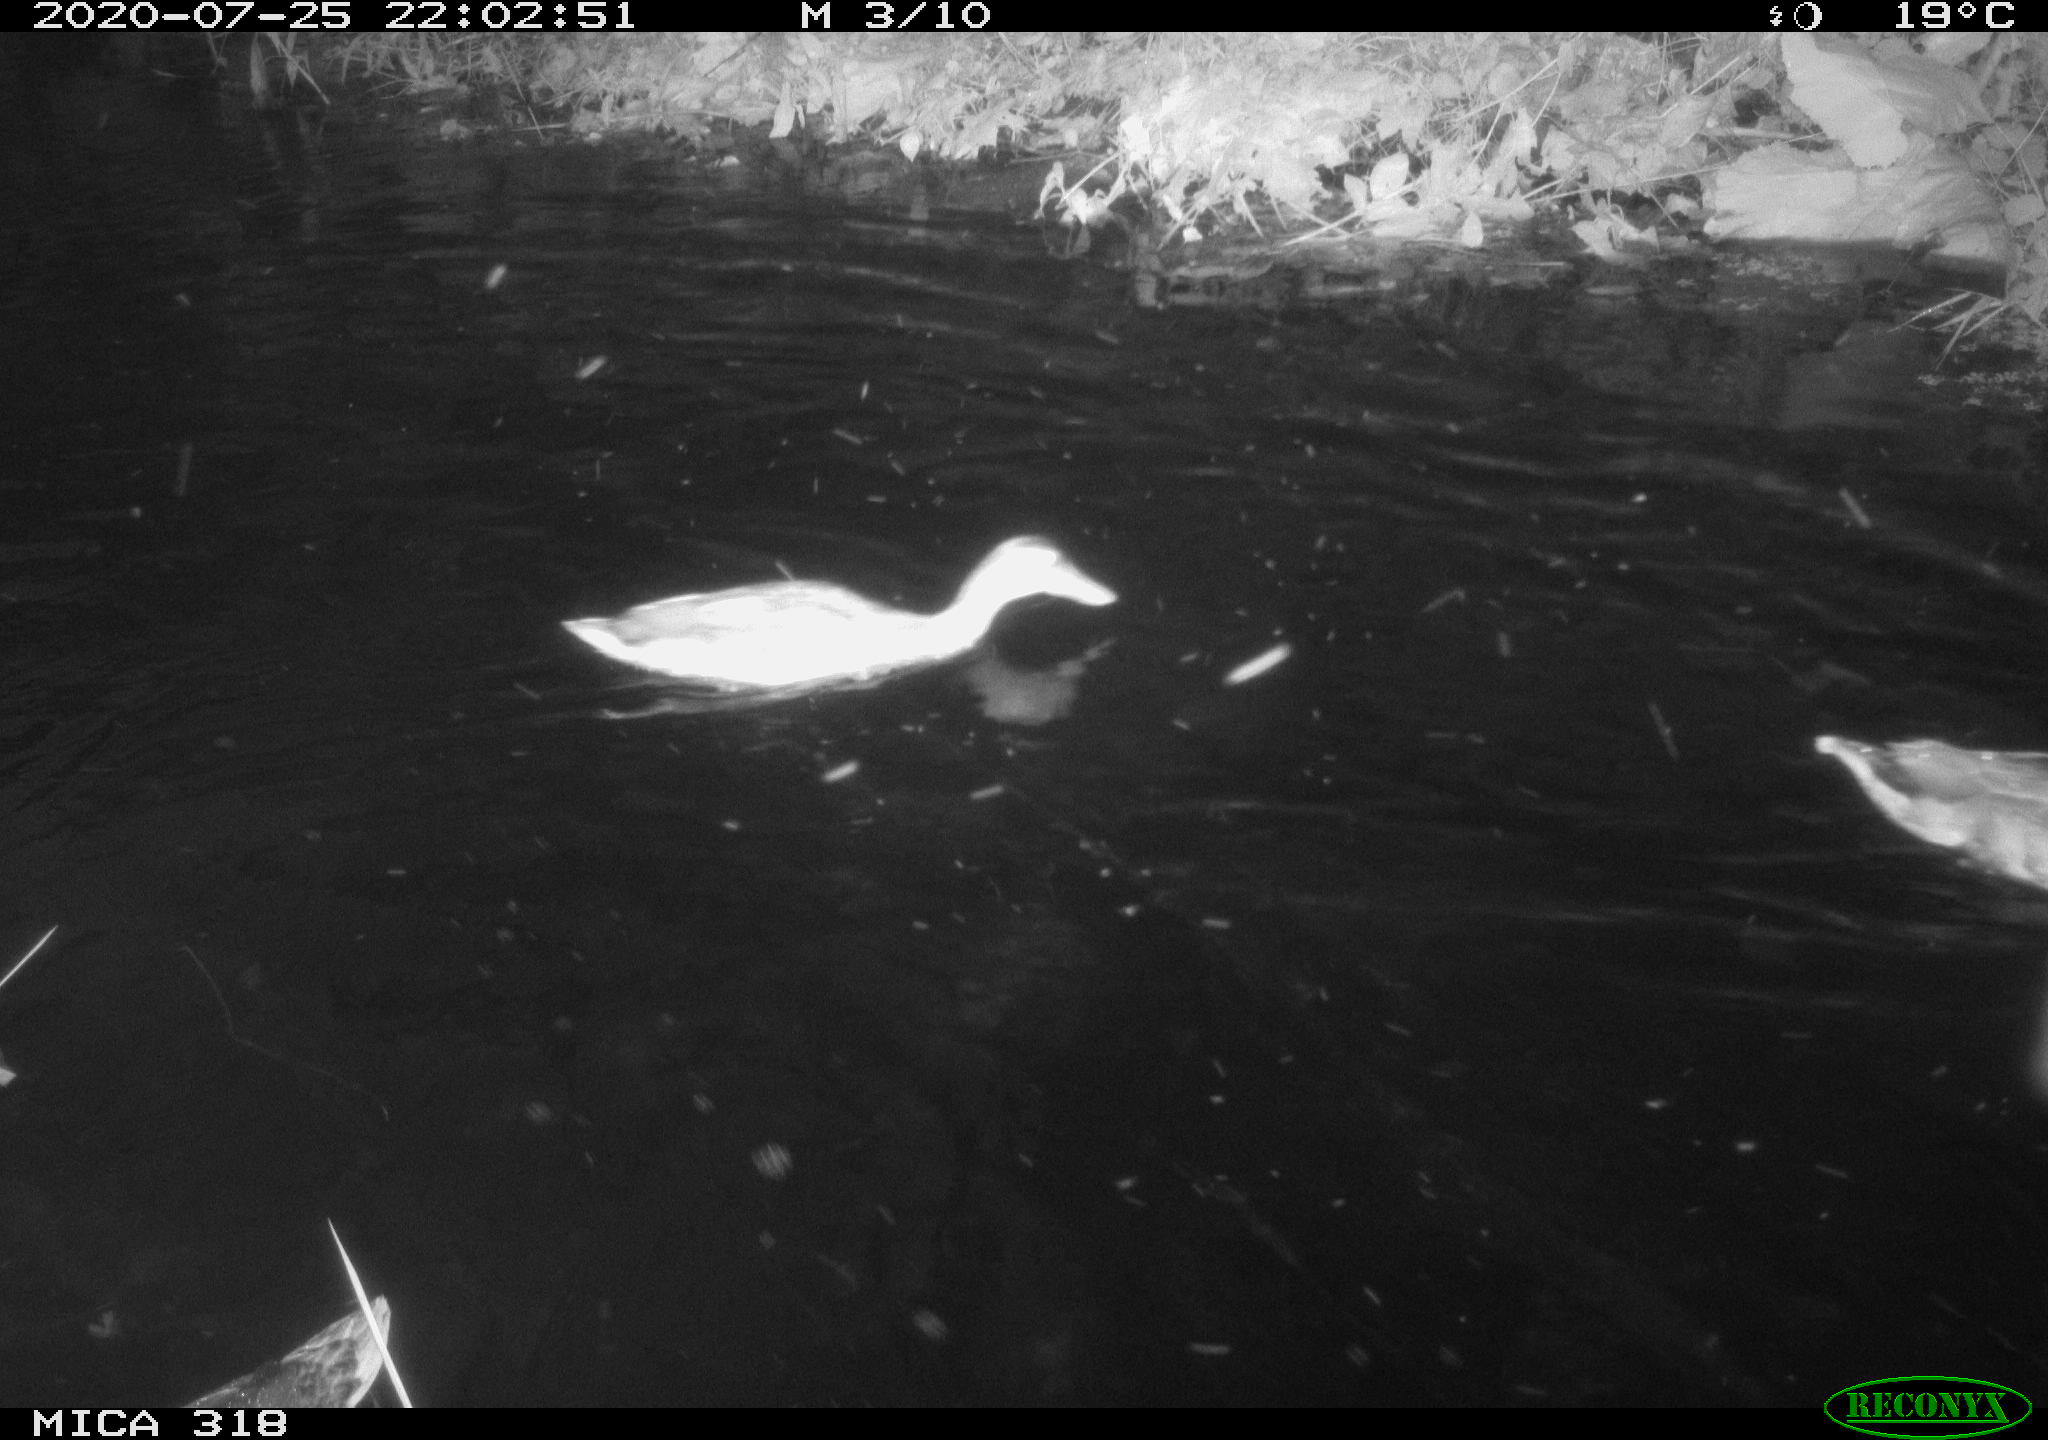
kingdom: Animalia
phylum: Chordata
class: Aves
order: Anseriformes
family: Anatidae
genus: Anas
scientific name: Anas platyrhynchos
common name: Mallard
